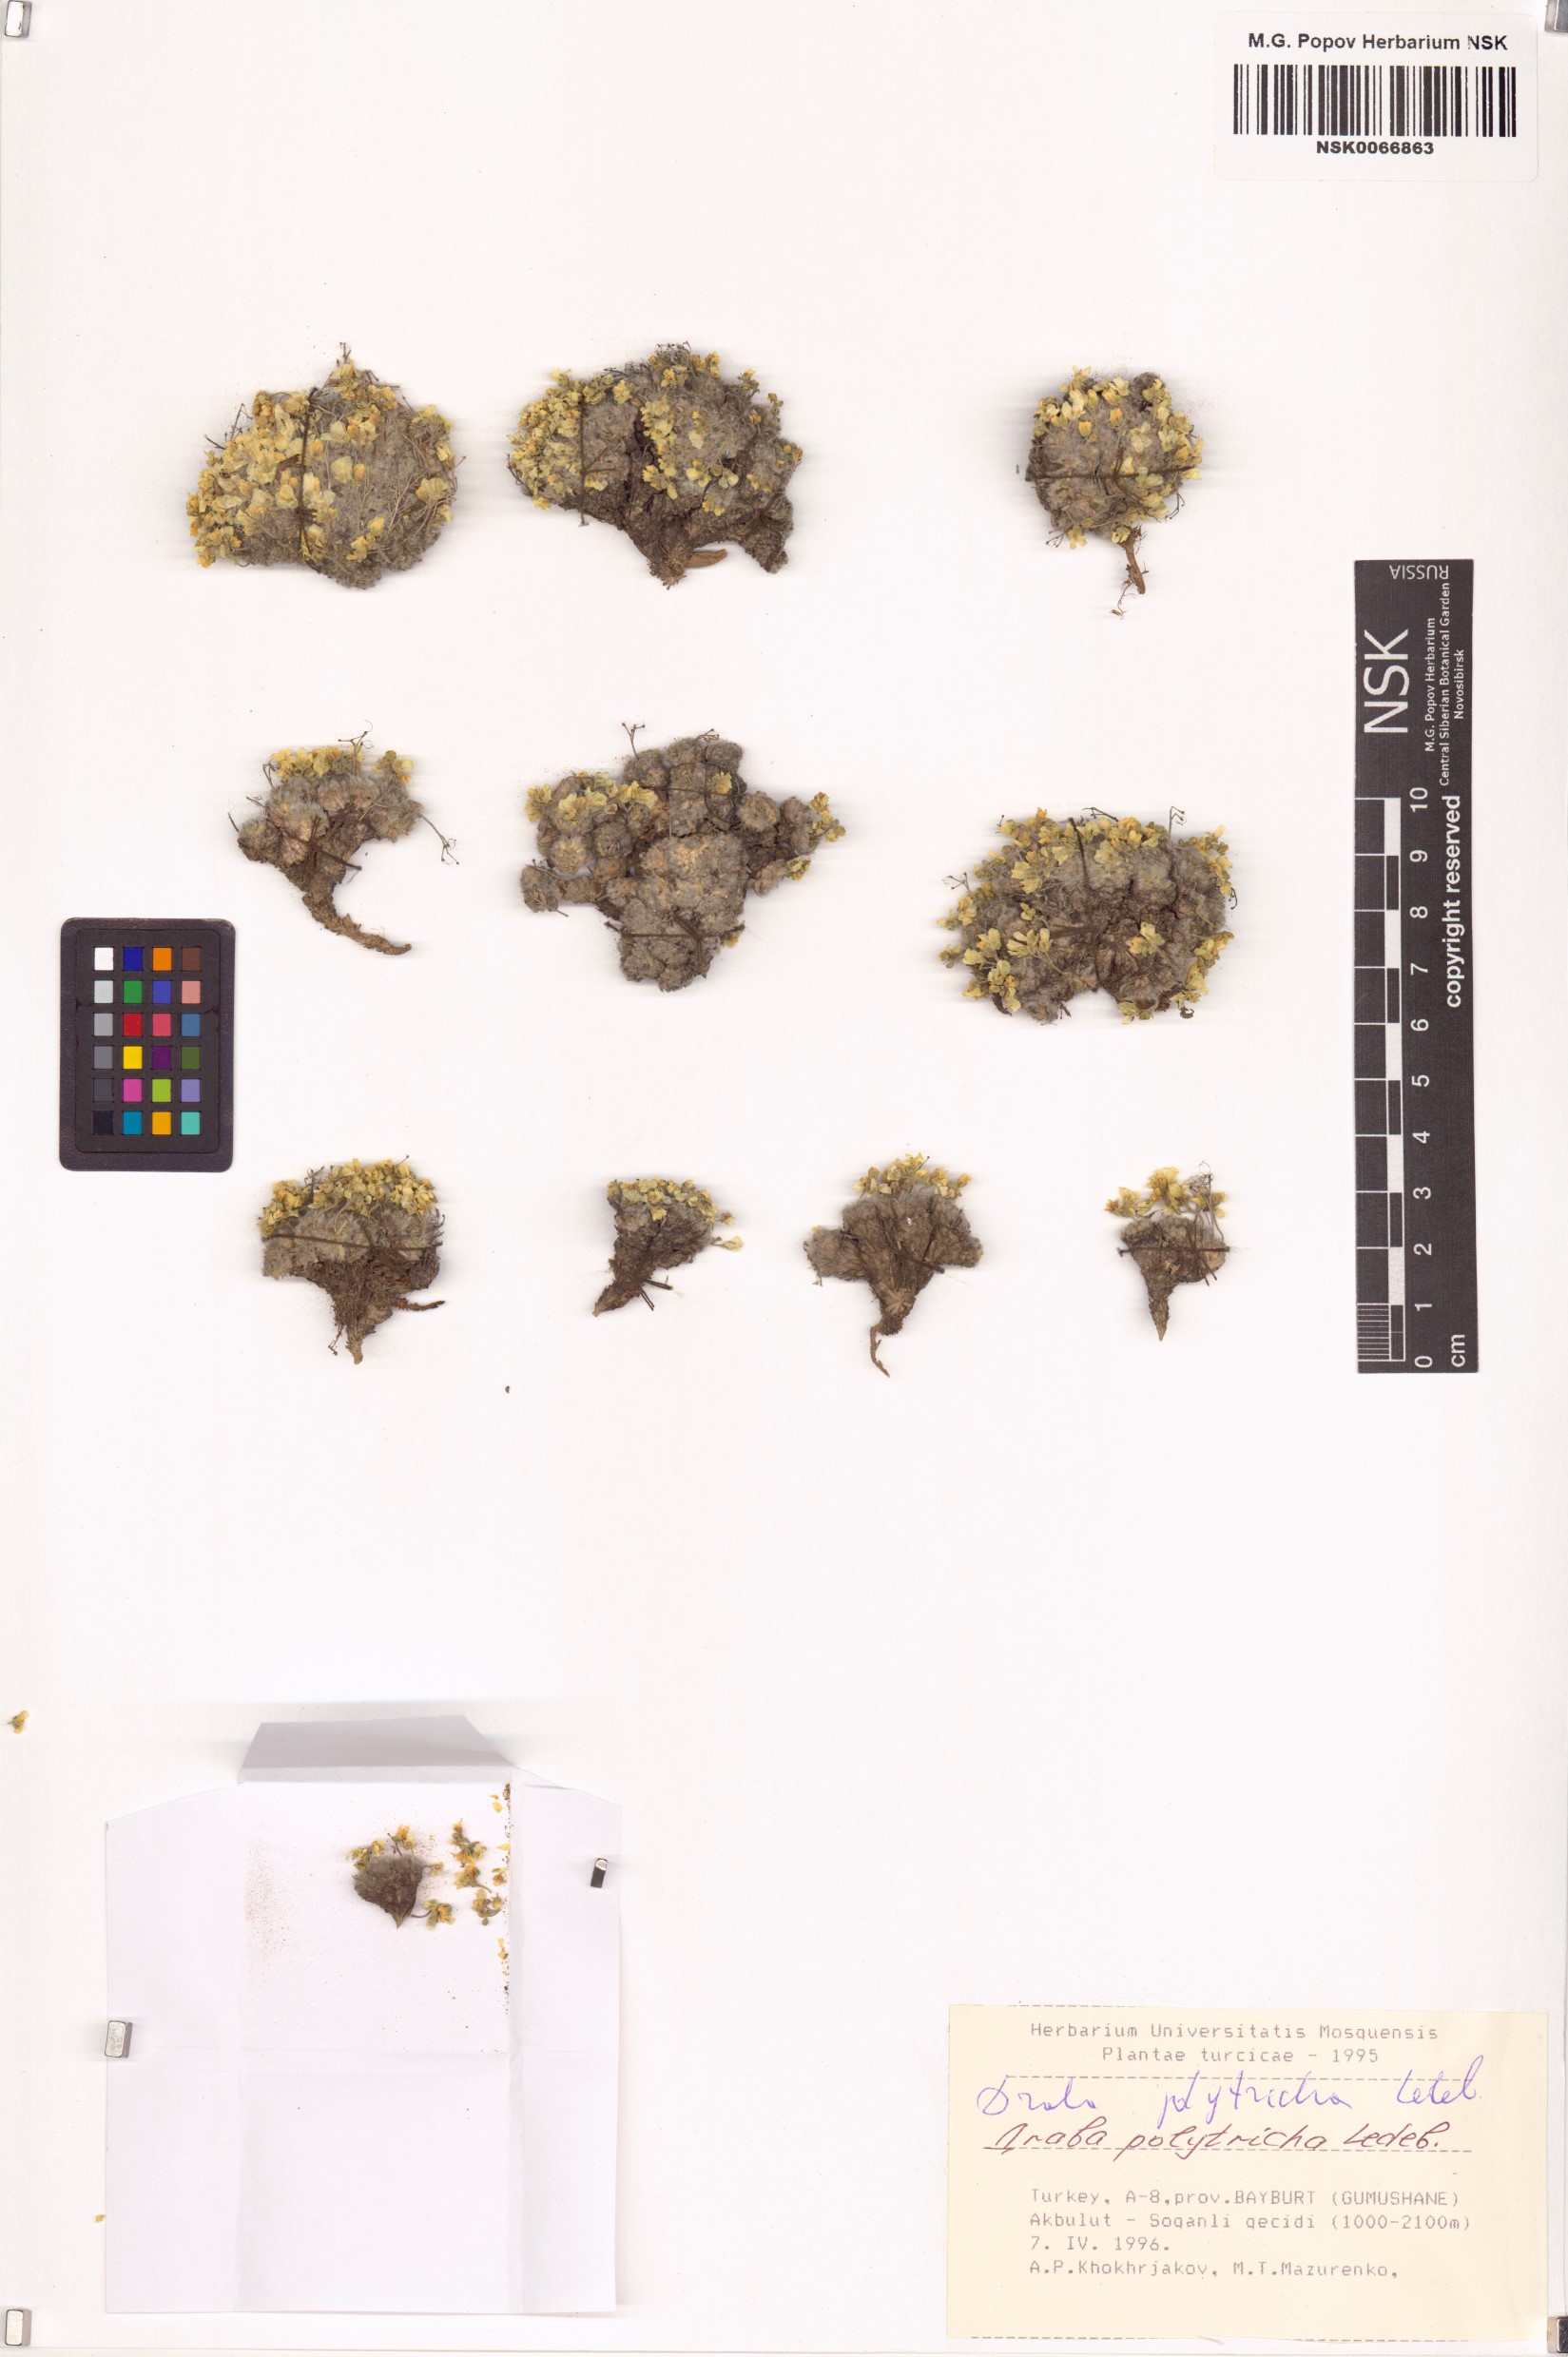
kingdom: Plantae
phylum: Tracheophyta
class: Magnoliopsida
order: Brassicales
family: Brassicaceae
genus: Draba
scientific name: Draba polytricha
